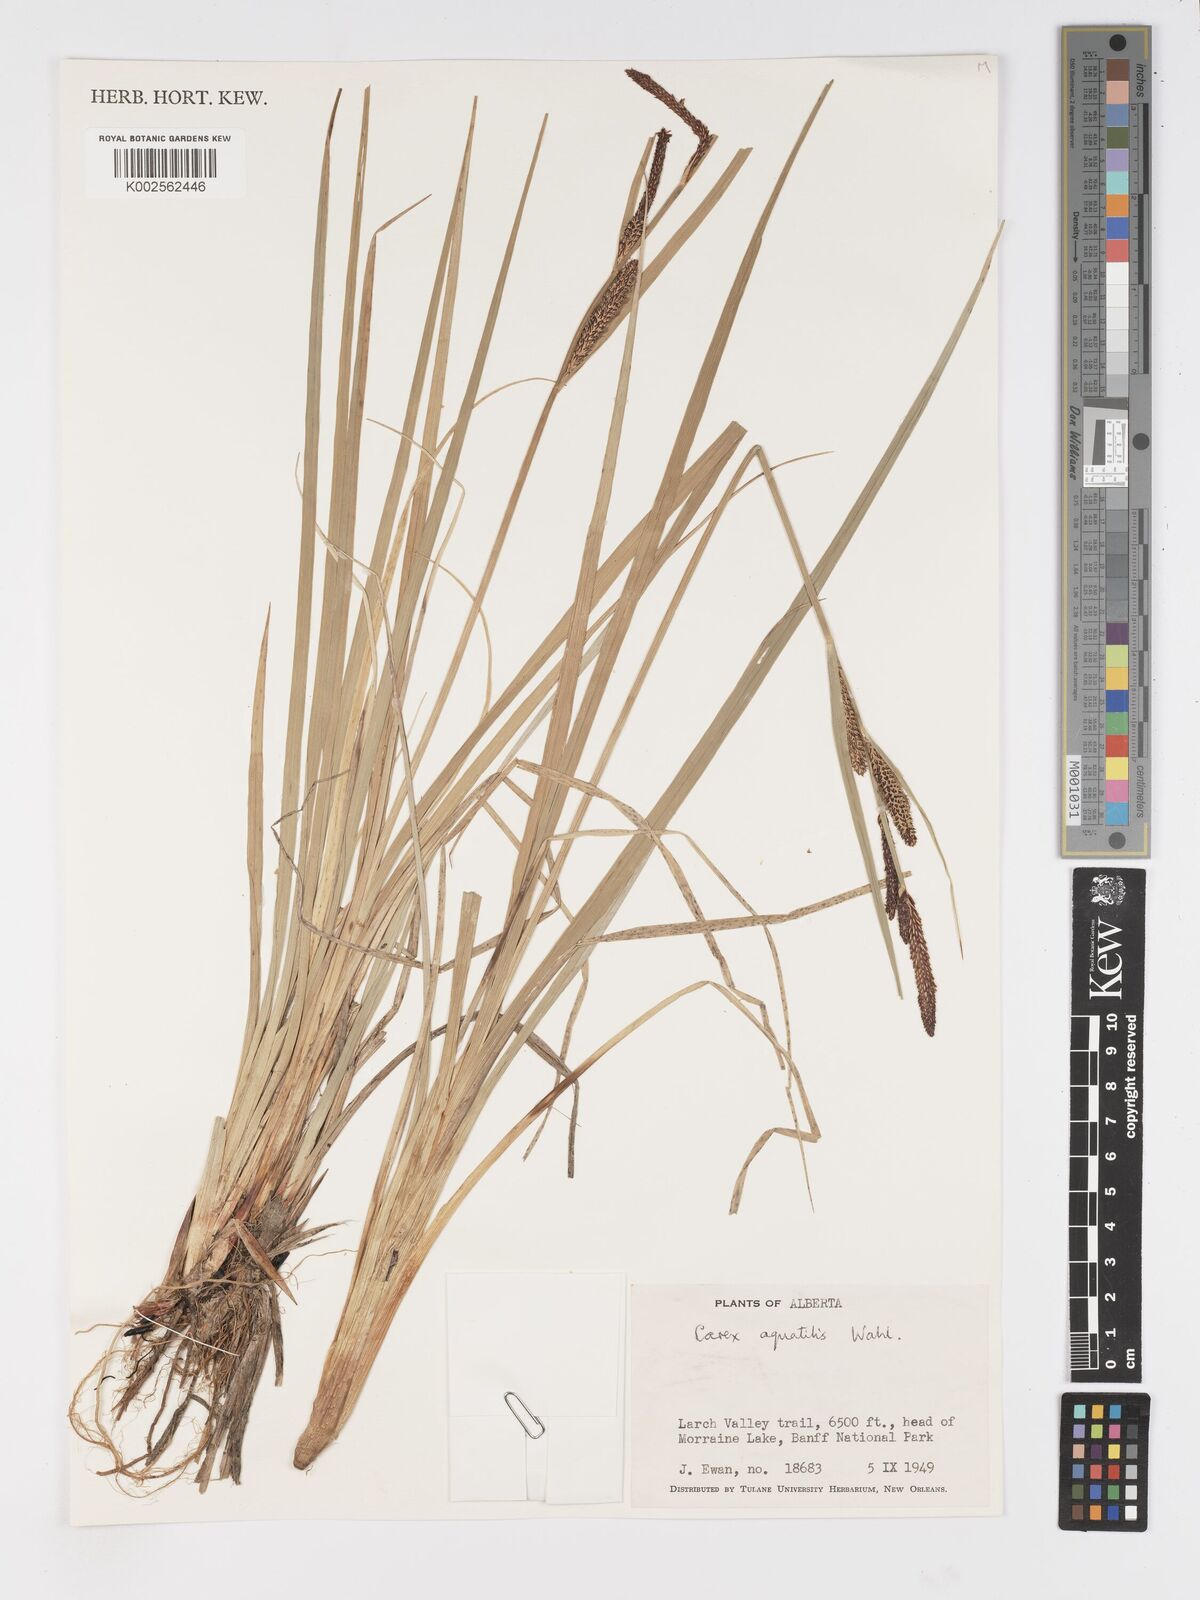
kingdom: Plantae
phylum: Tracheophyta
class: Liliopsida
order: Poales
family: Cyperaceae
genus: Carex
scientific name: Carex
